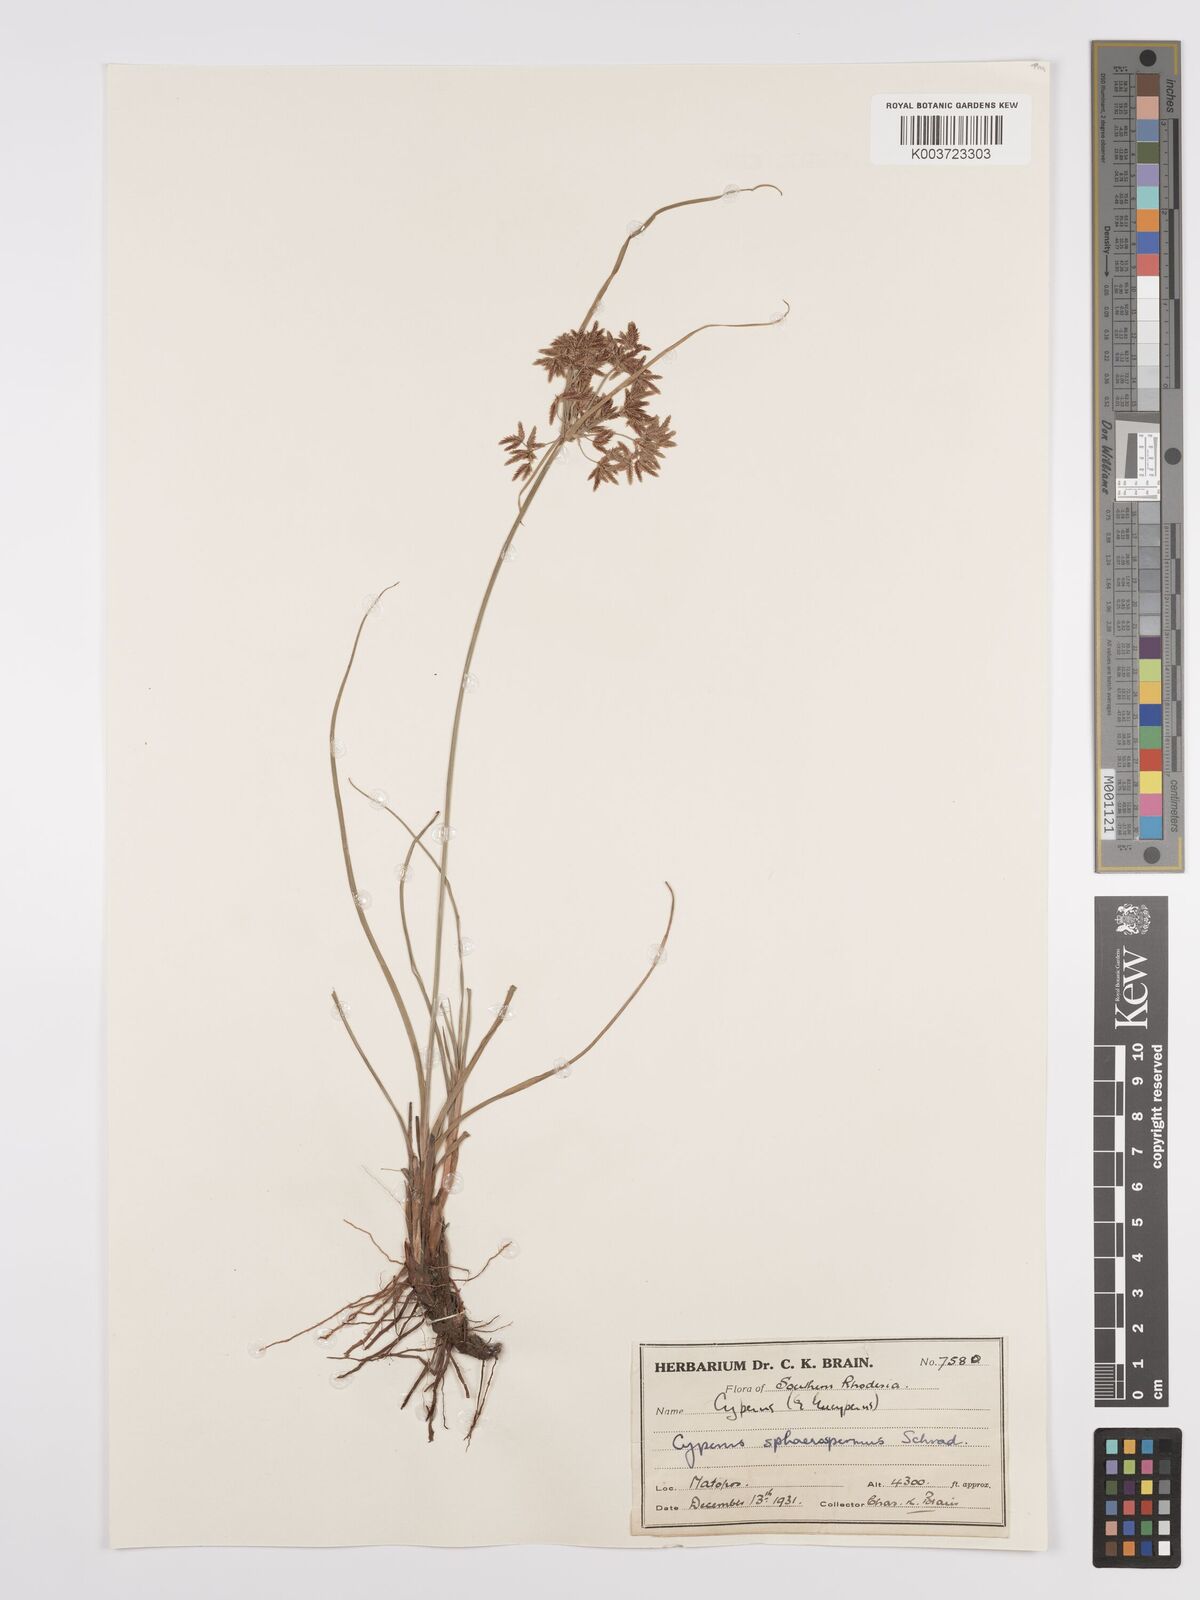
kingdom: Plantae
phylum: Tracheophyta
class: Liliopsida
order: Poales
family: Cyperaceae
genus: Cyperus
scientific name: Cyperus denudatus
